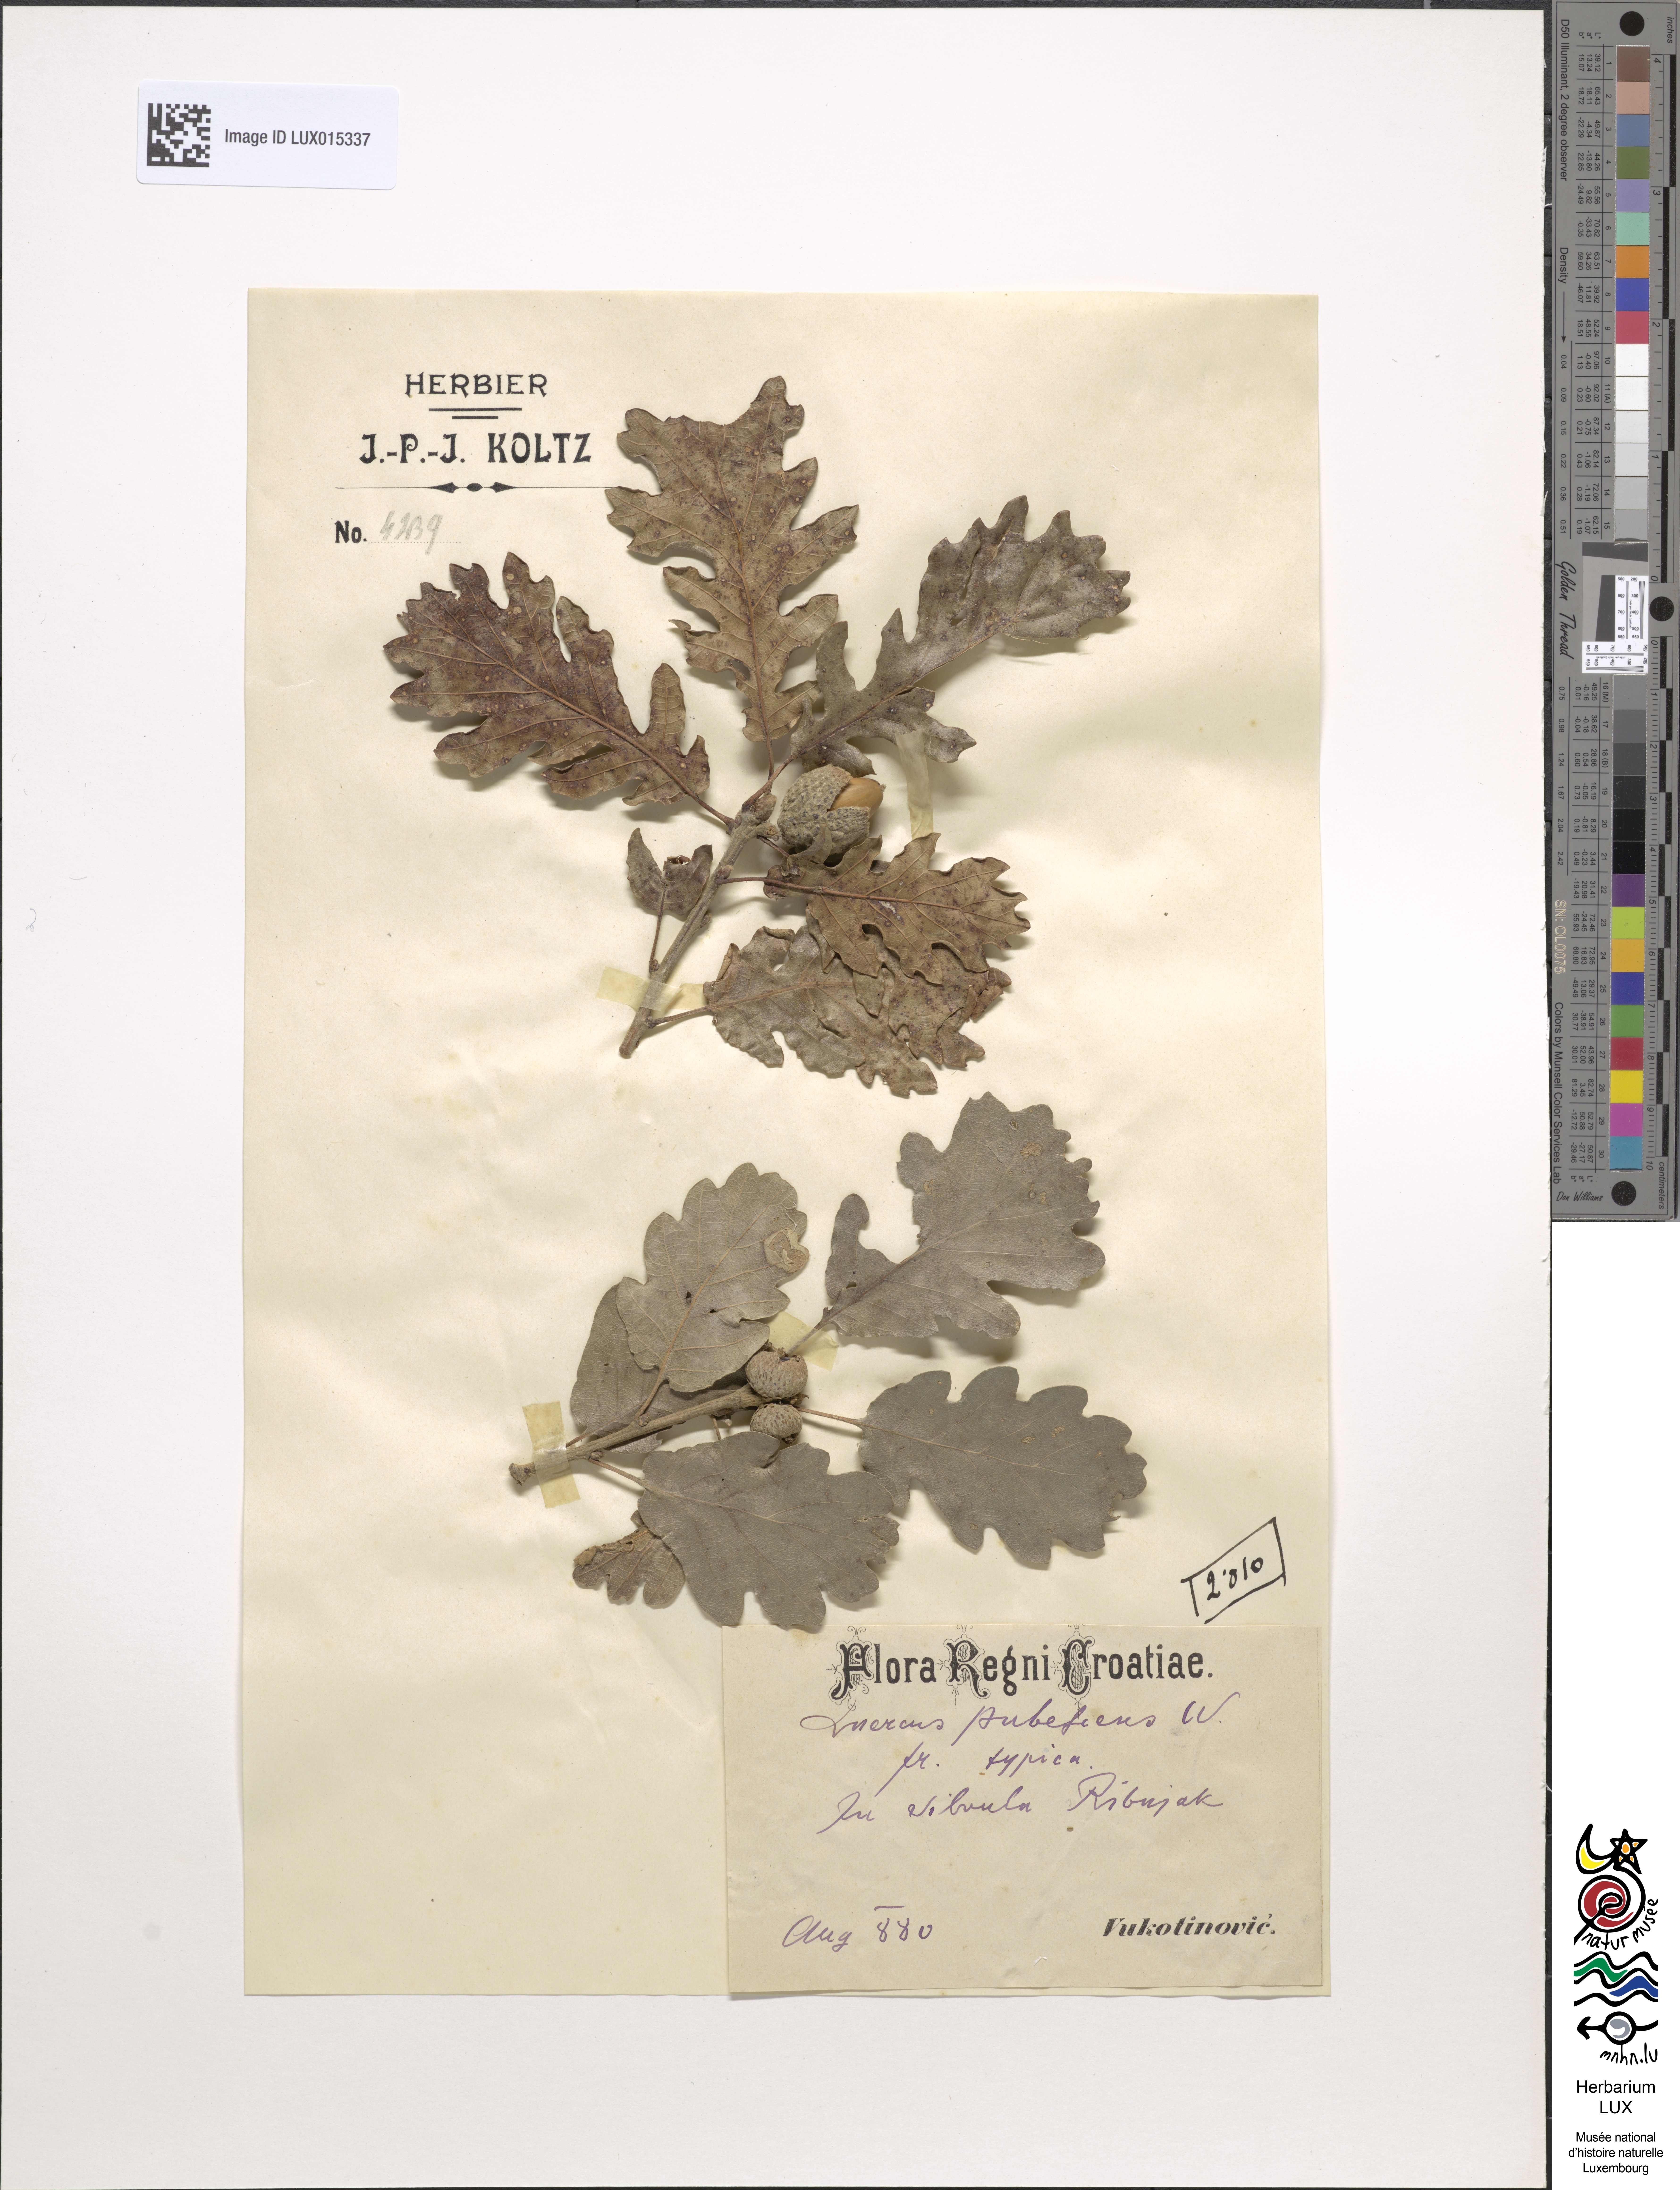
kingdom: Plantae
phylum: Tracheophyta
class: Magnoliopsida
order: Fagales
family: Fagaceae
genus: Quercus
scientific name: Quercus pubescens
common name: Downy oak
